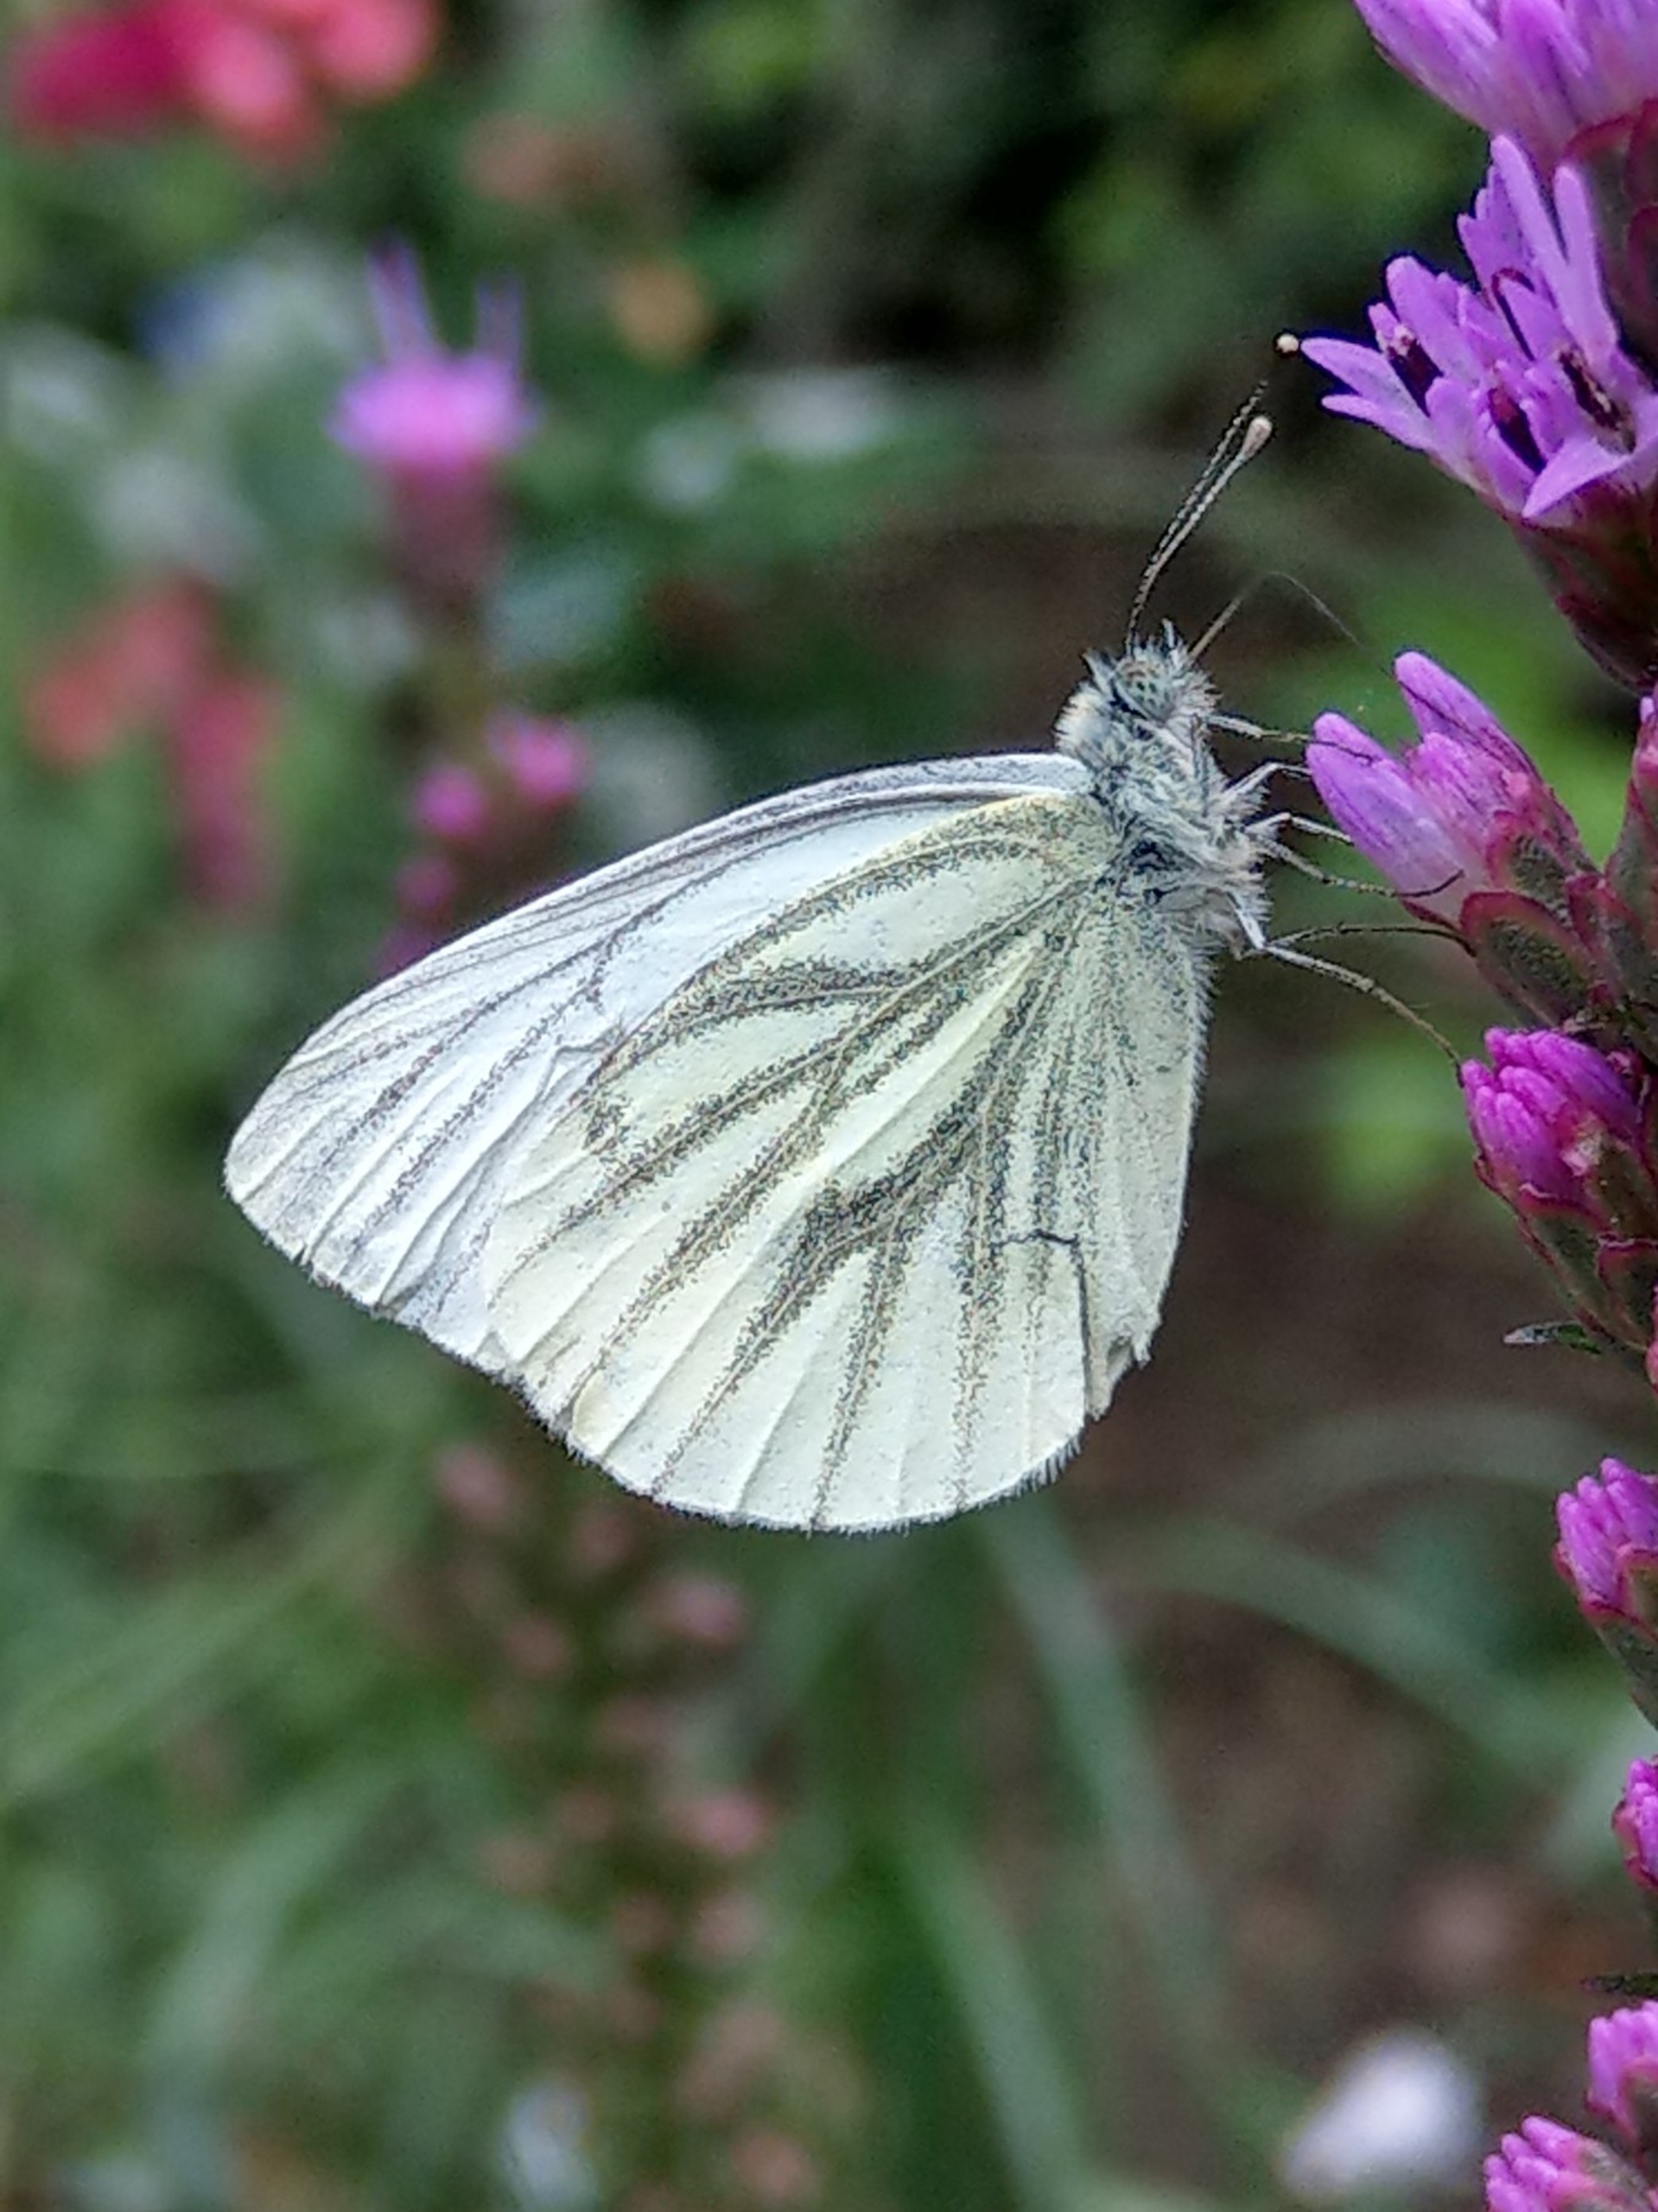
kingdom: Animalia
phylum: Arthropoda
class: Insecta
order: Lepidoptera
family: Pieridae
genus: Pieris
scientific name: Pieris napi
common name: Grønåret kålsommerfugl
